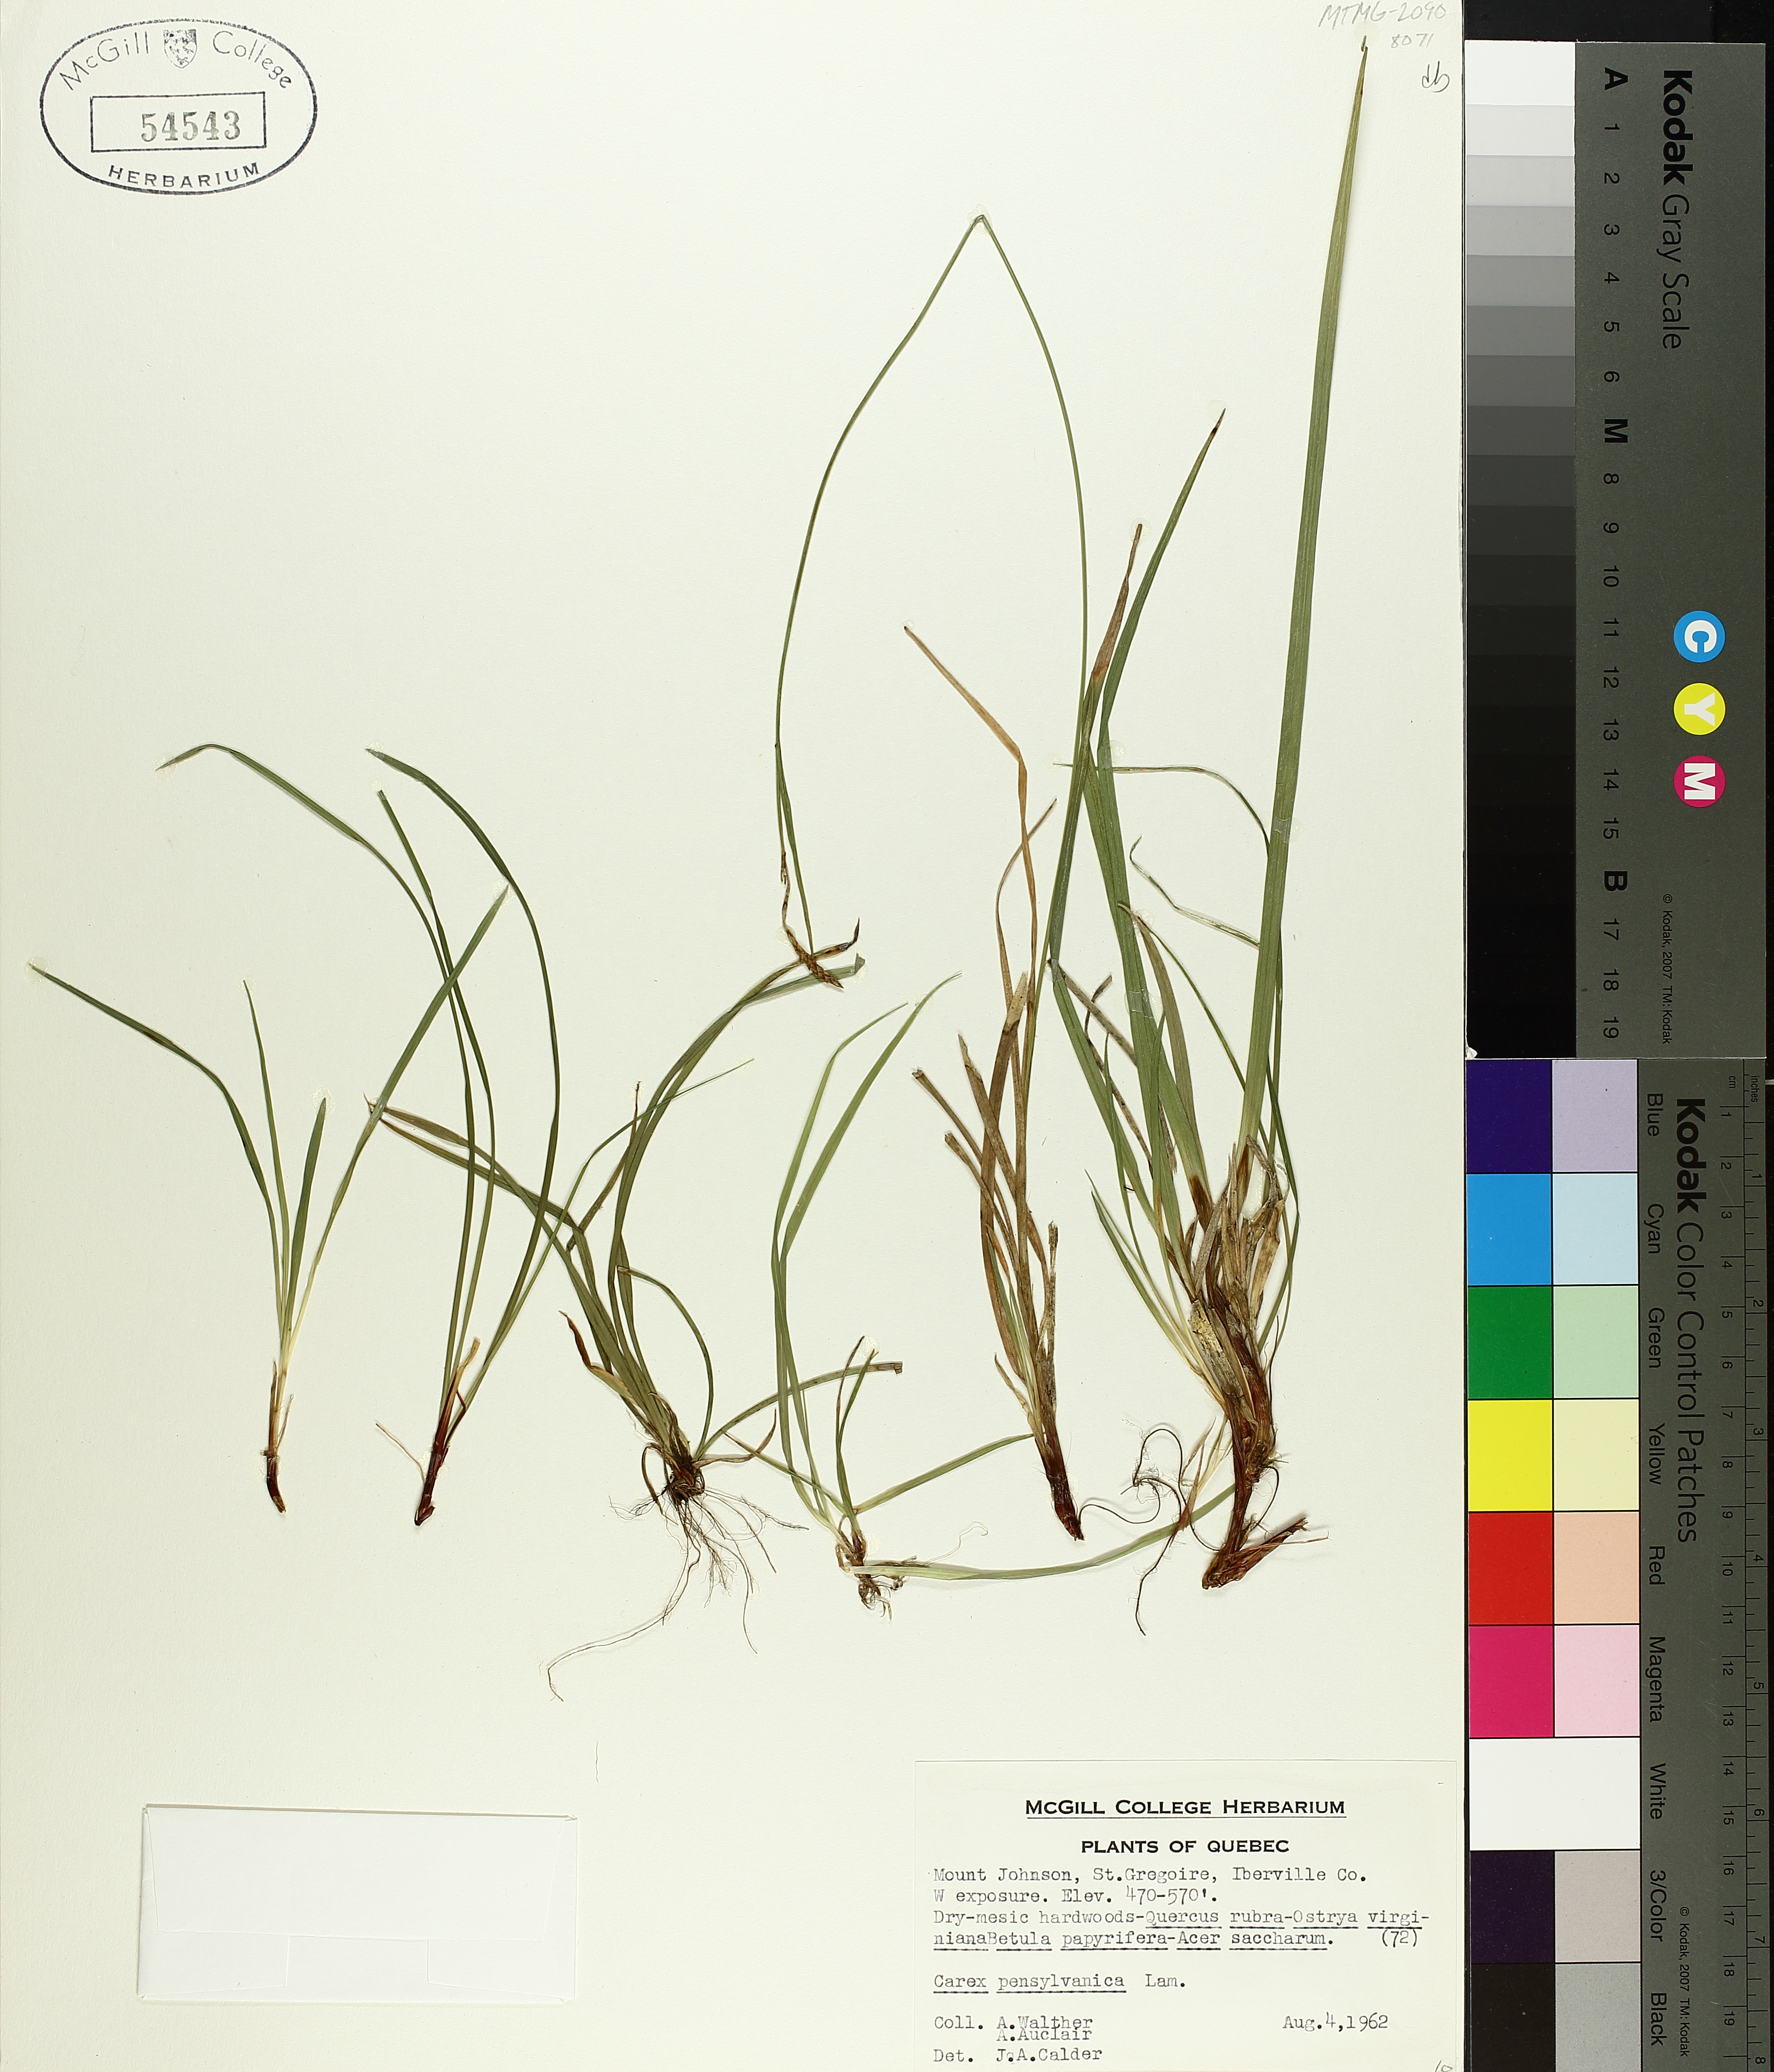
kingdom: Plantae
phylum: Tracheophyta
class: Liliopsida
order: Poales
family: Cyperaceae
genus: Carex
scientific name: Carex pensylvanica
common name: Common oak sedge
